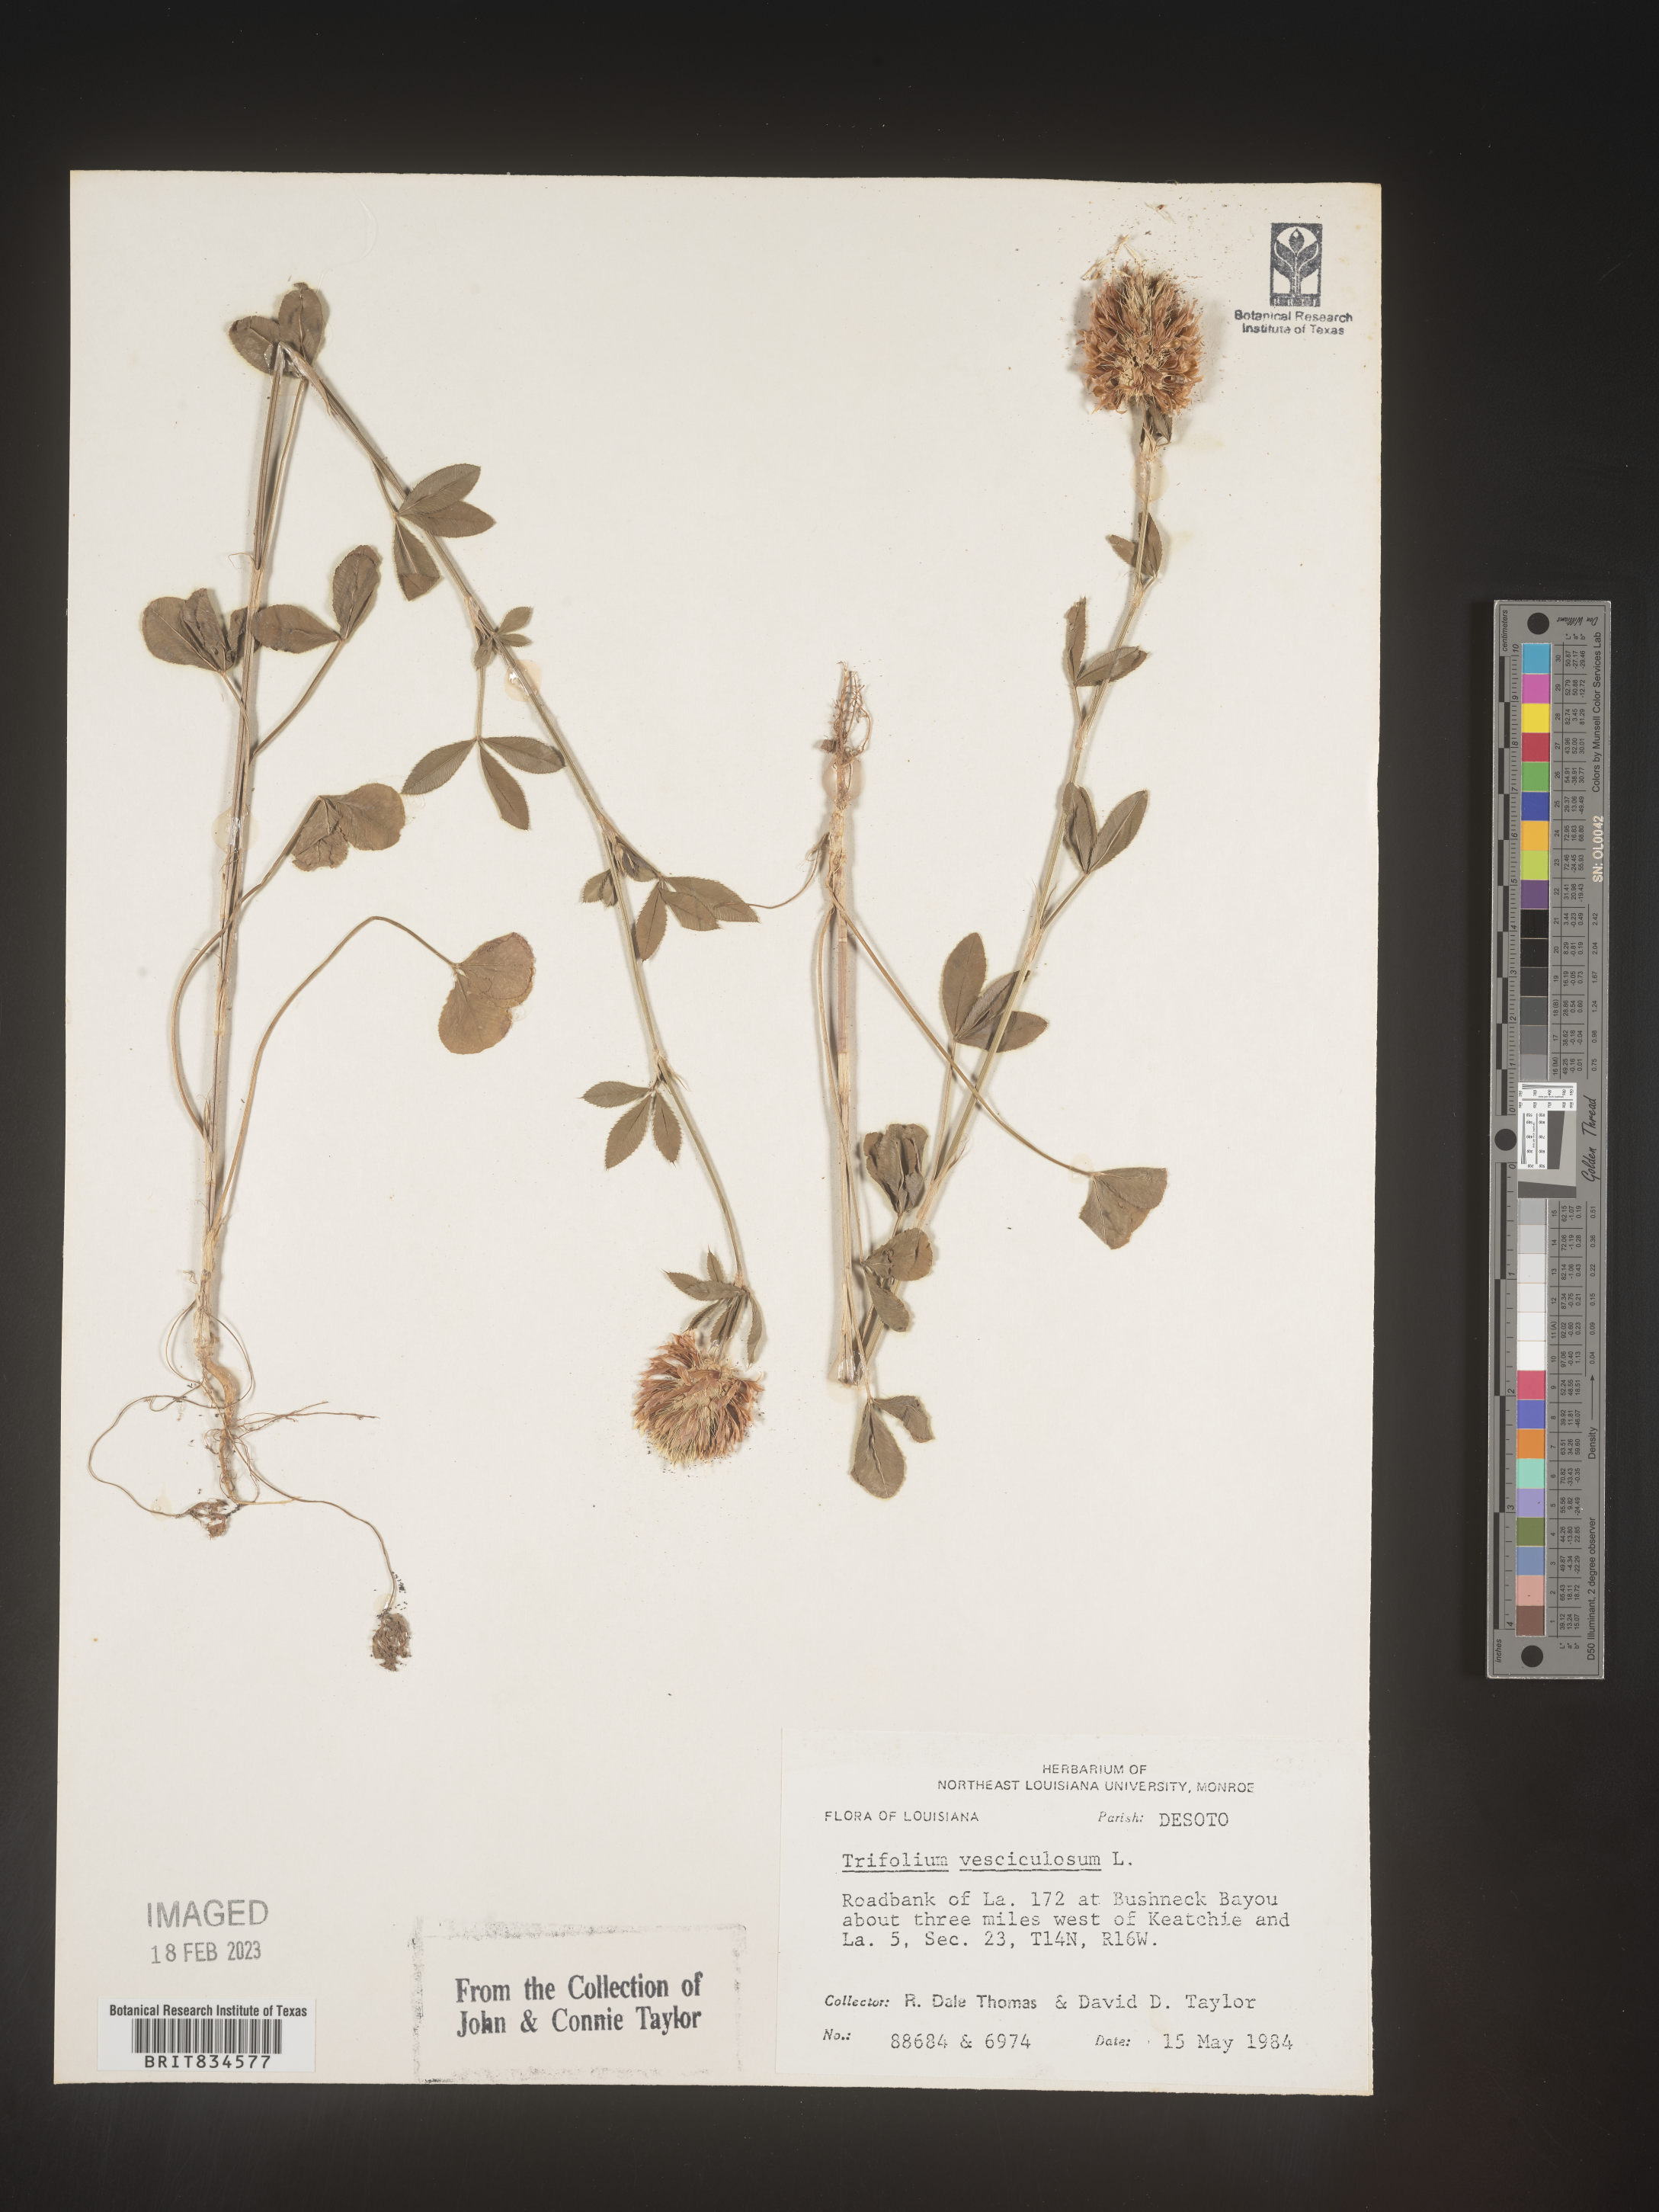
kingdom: Plantae
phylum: Tracheophyta
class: Magnoliopsida
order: Fabales
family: Fabaceae
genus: Trifolium
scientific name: Trifolium
